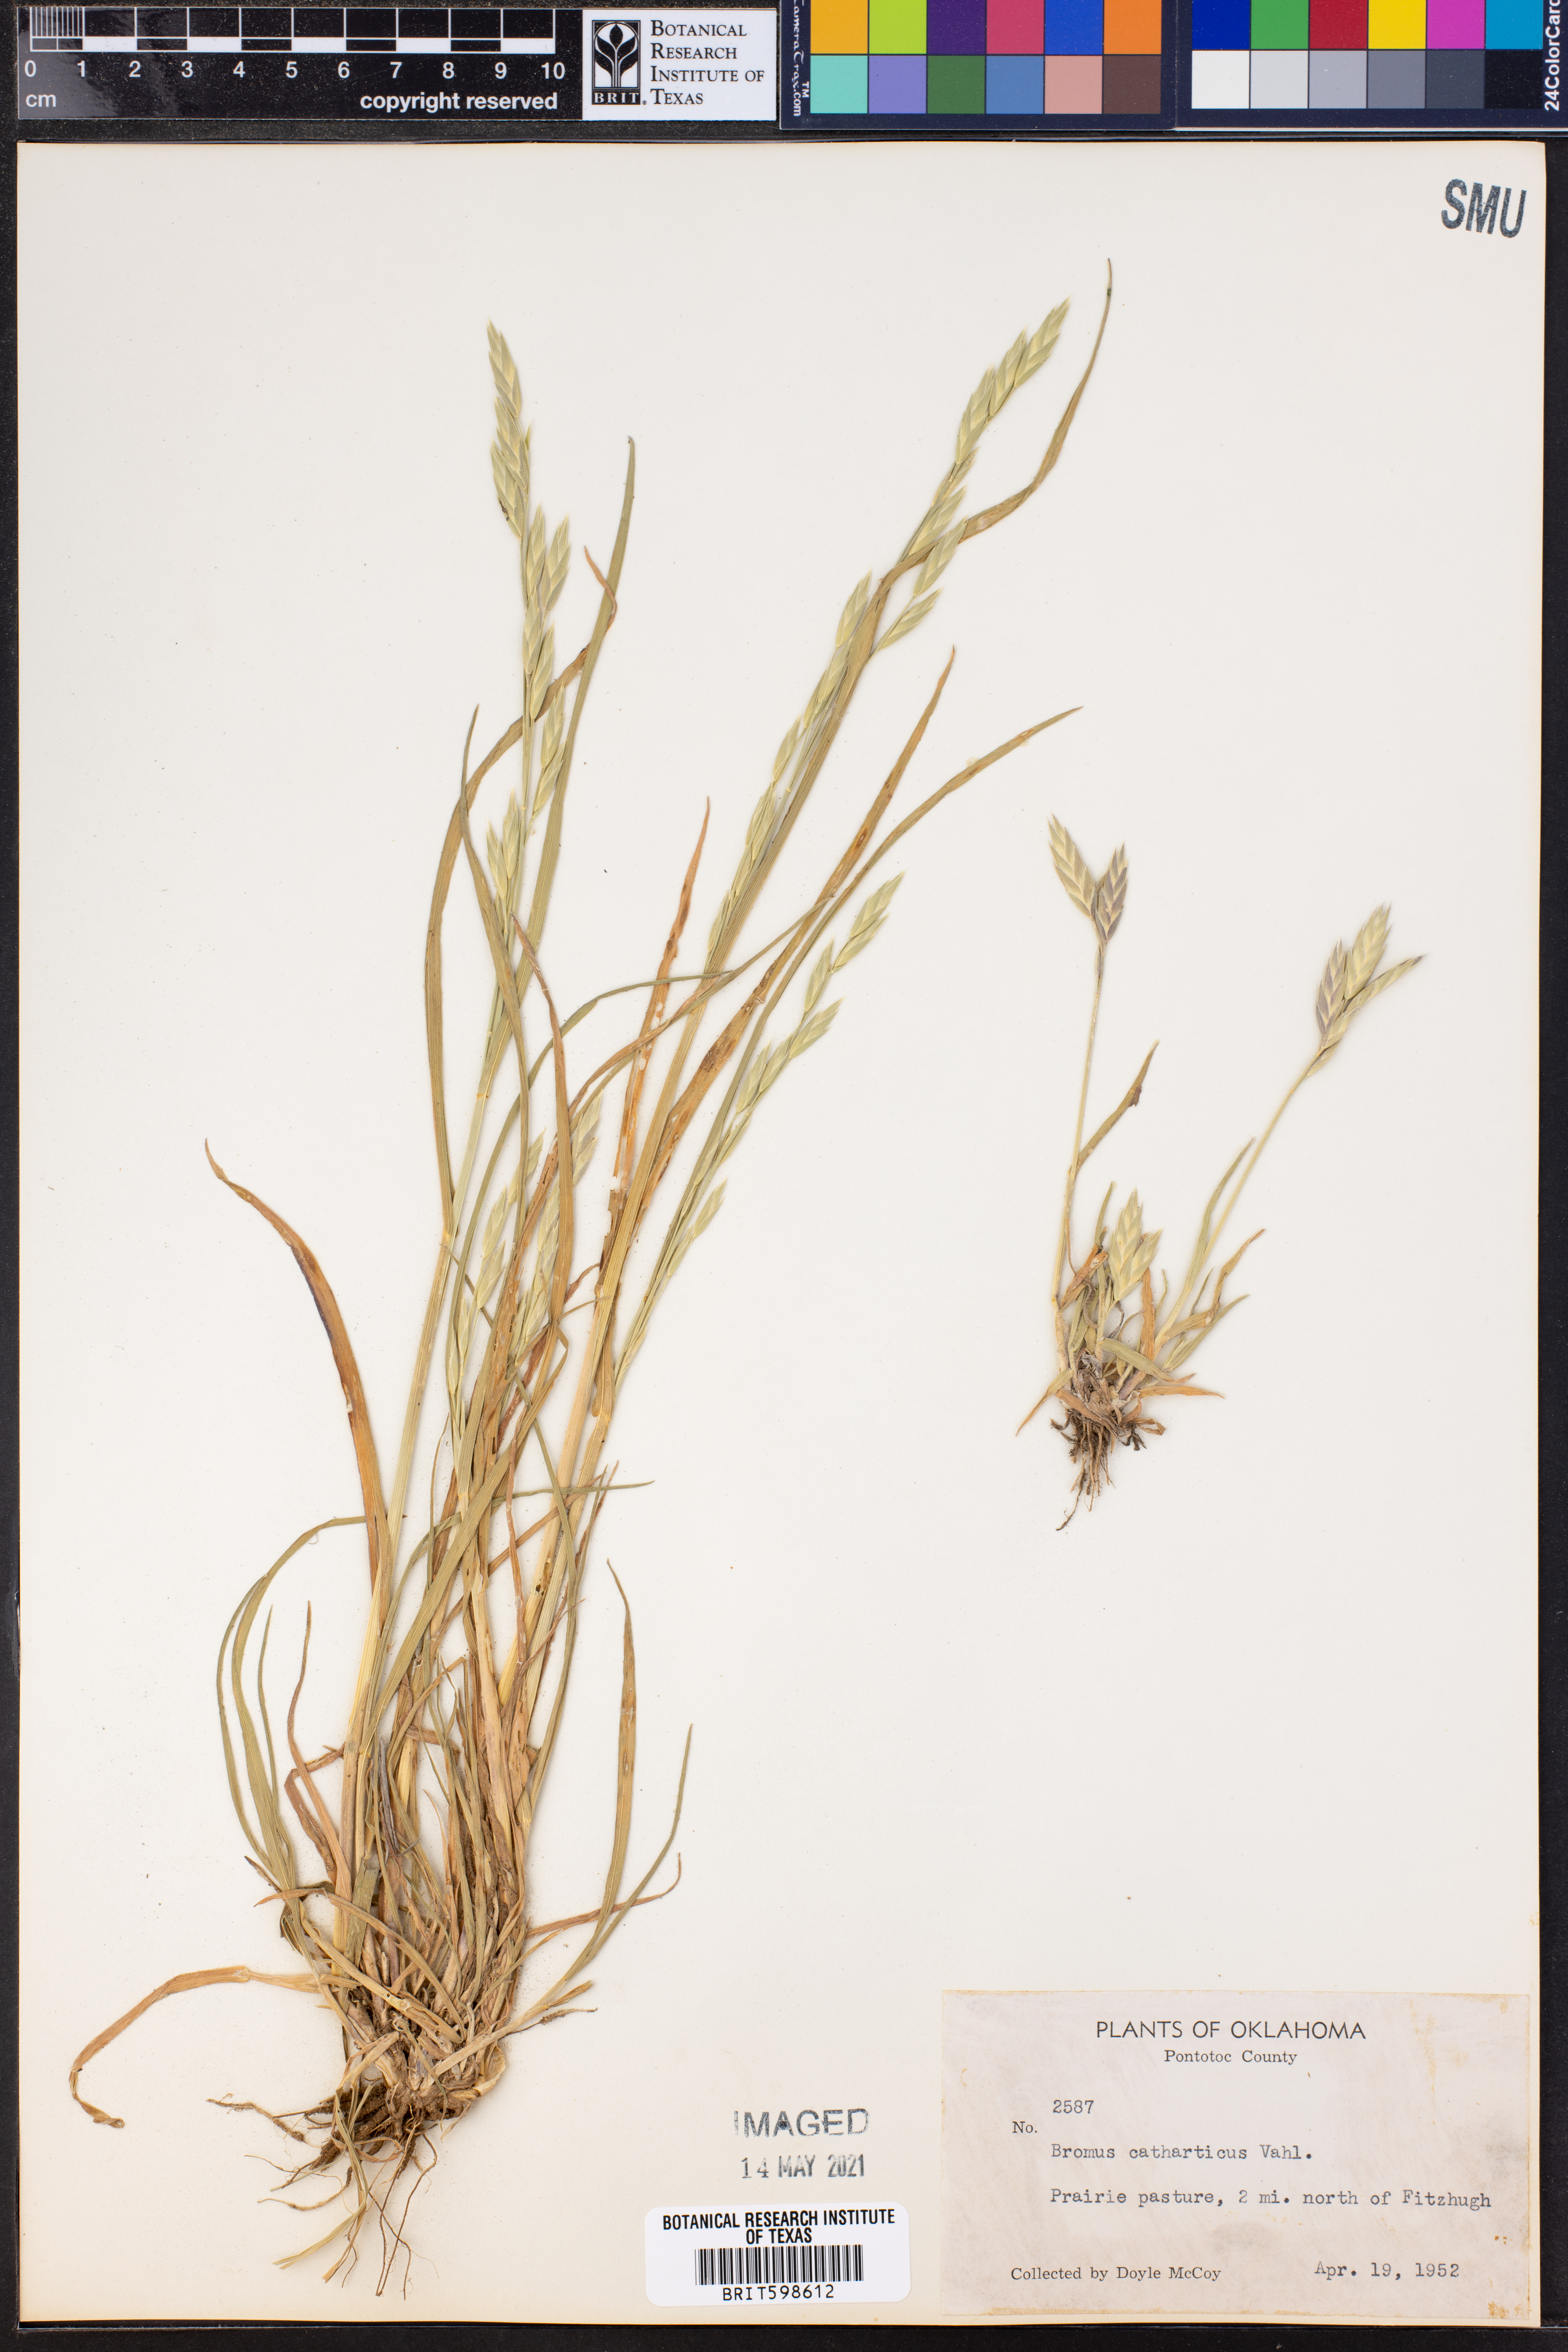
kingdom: Plantae
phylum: Tracheophyta
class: Liliopsida
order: Poales
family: Poaceae
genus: Bromus
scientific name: Bromus catharticus
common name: Rescuegrass
